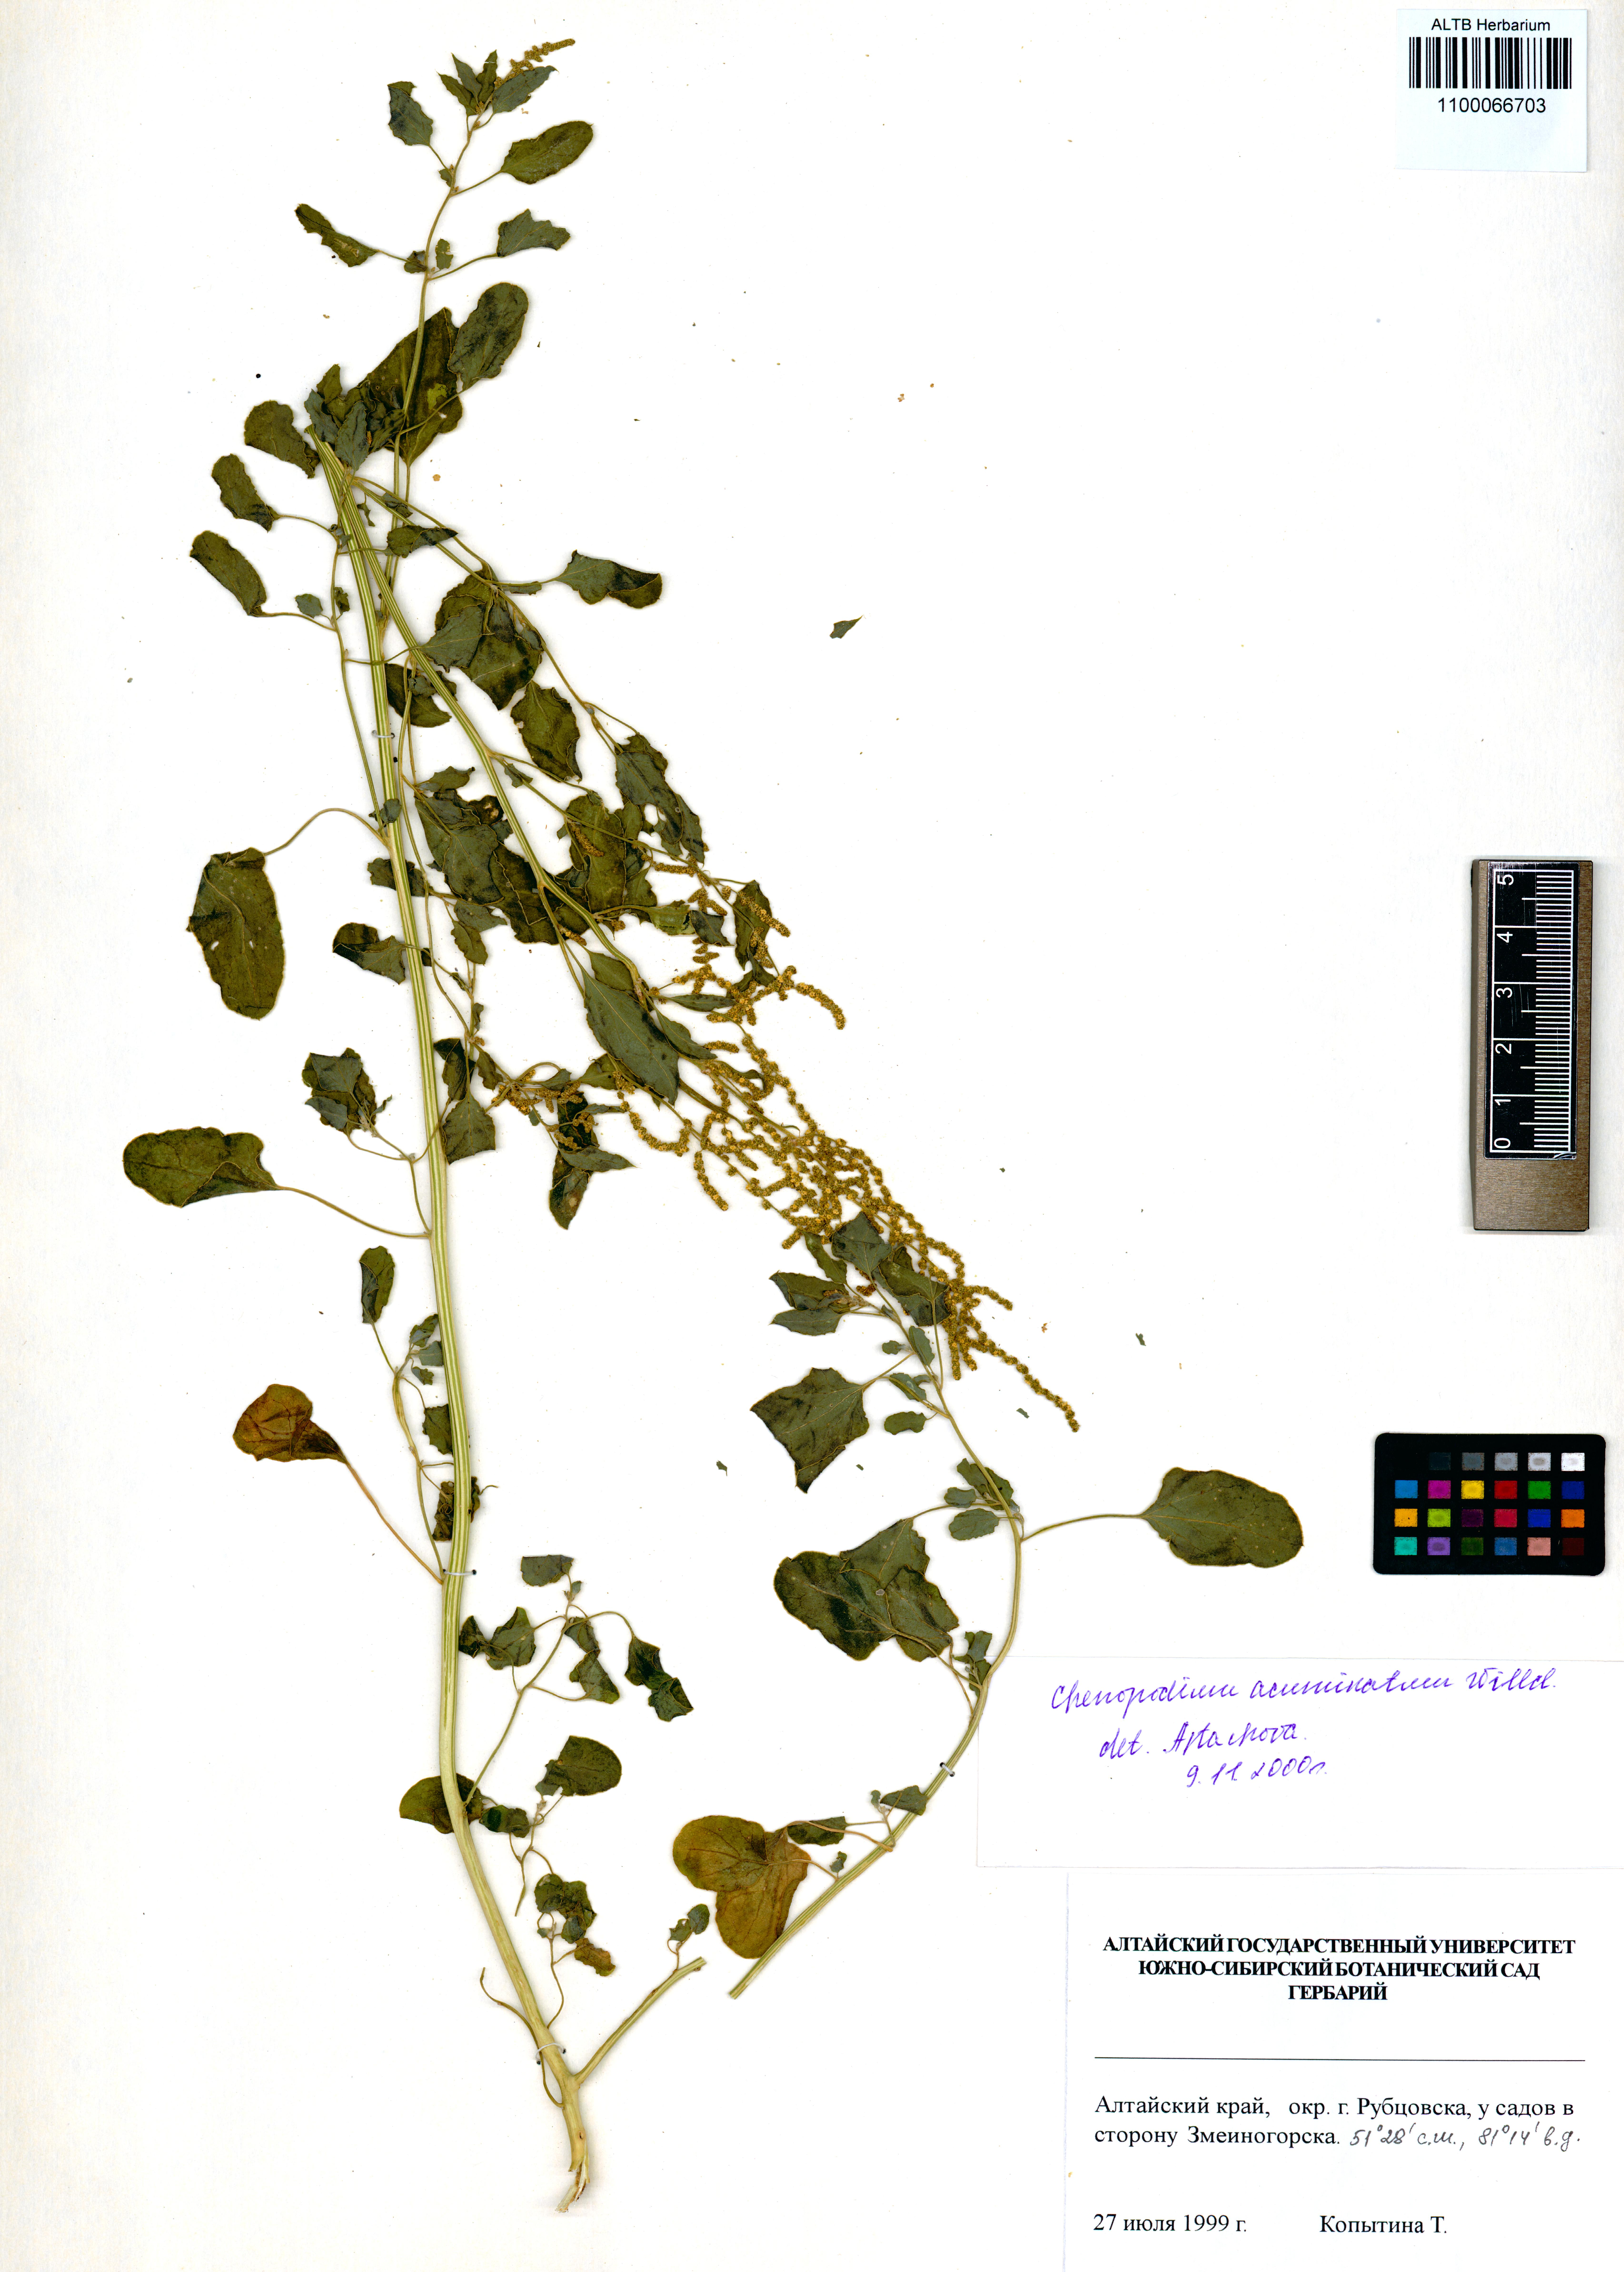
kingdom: Plantae
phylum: Tracheophyta
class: Magnoliopsida
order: Caryophyllales
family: Amaranthaceae
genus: Chenopodium
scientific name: Chenopodium acuminatum
